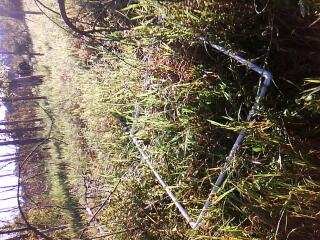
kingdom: Plantae
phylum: Tracheophyta
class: Liliopsida
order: Poales
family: Poaceae
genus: Leersia
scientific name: Leersia oryzoides
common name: Cut-grass
